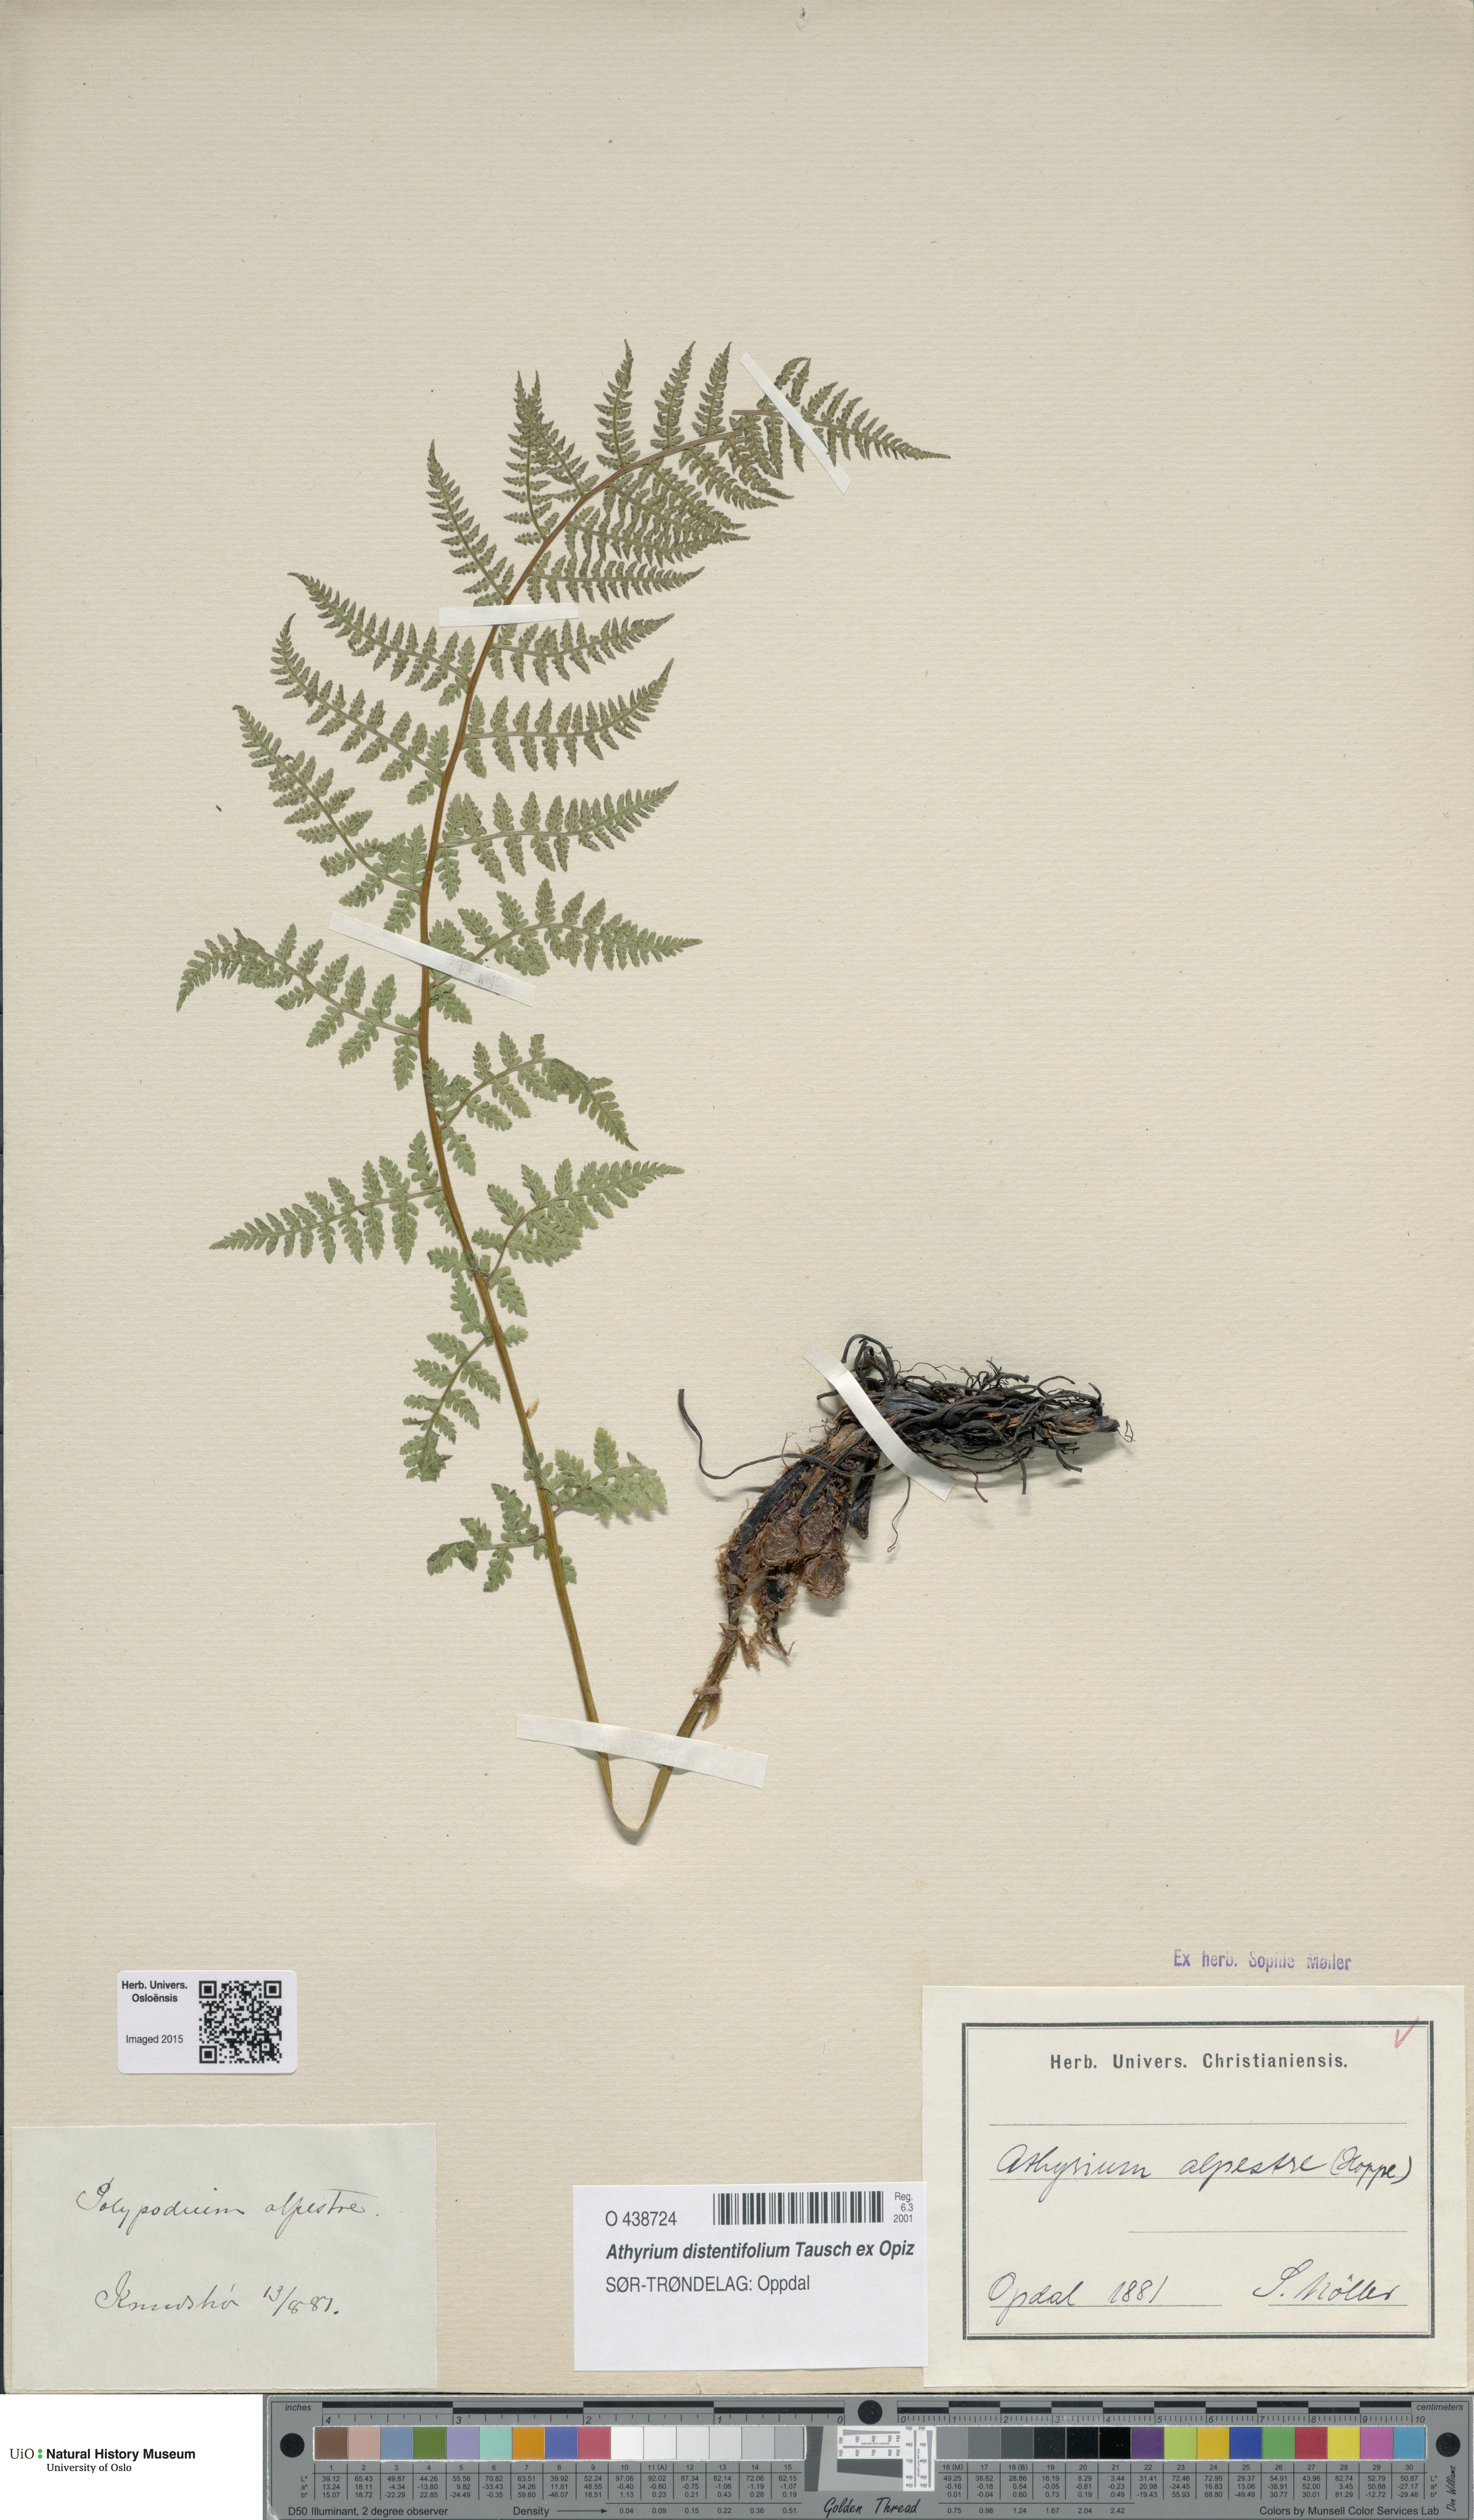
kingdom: Plantae
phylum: Tracheophyta
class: Polypodiopsida
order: Polypodiales
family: Athyriaceae
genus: Pseudathyrium
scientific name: Pseudathyrium alpestre
